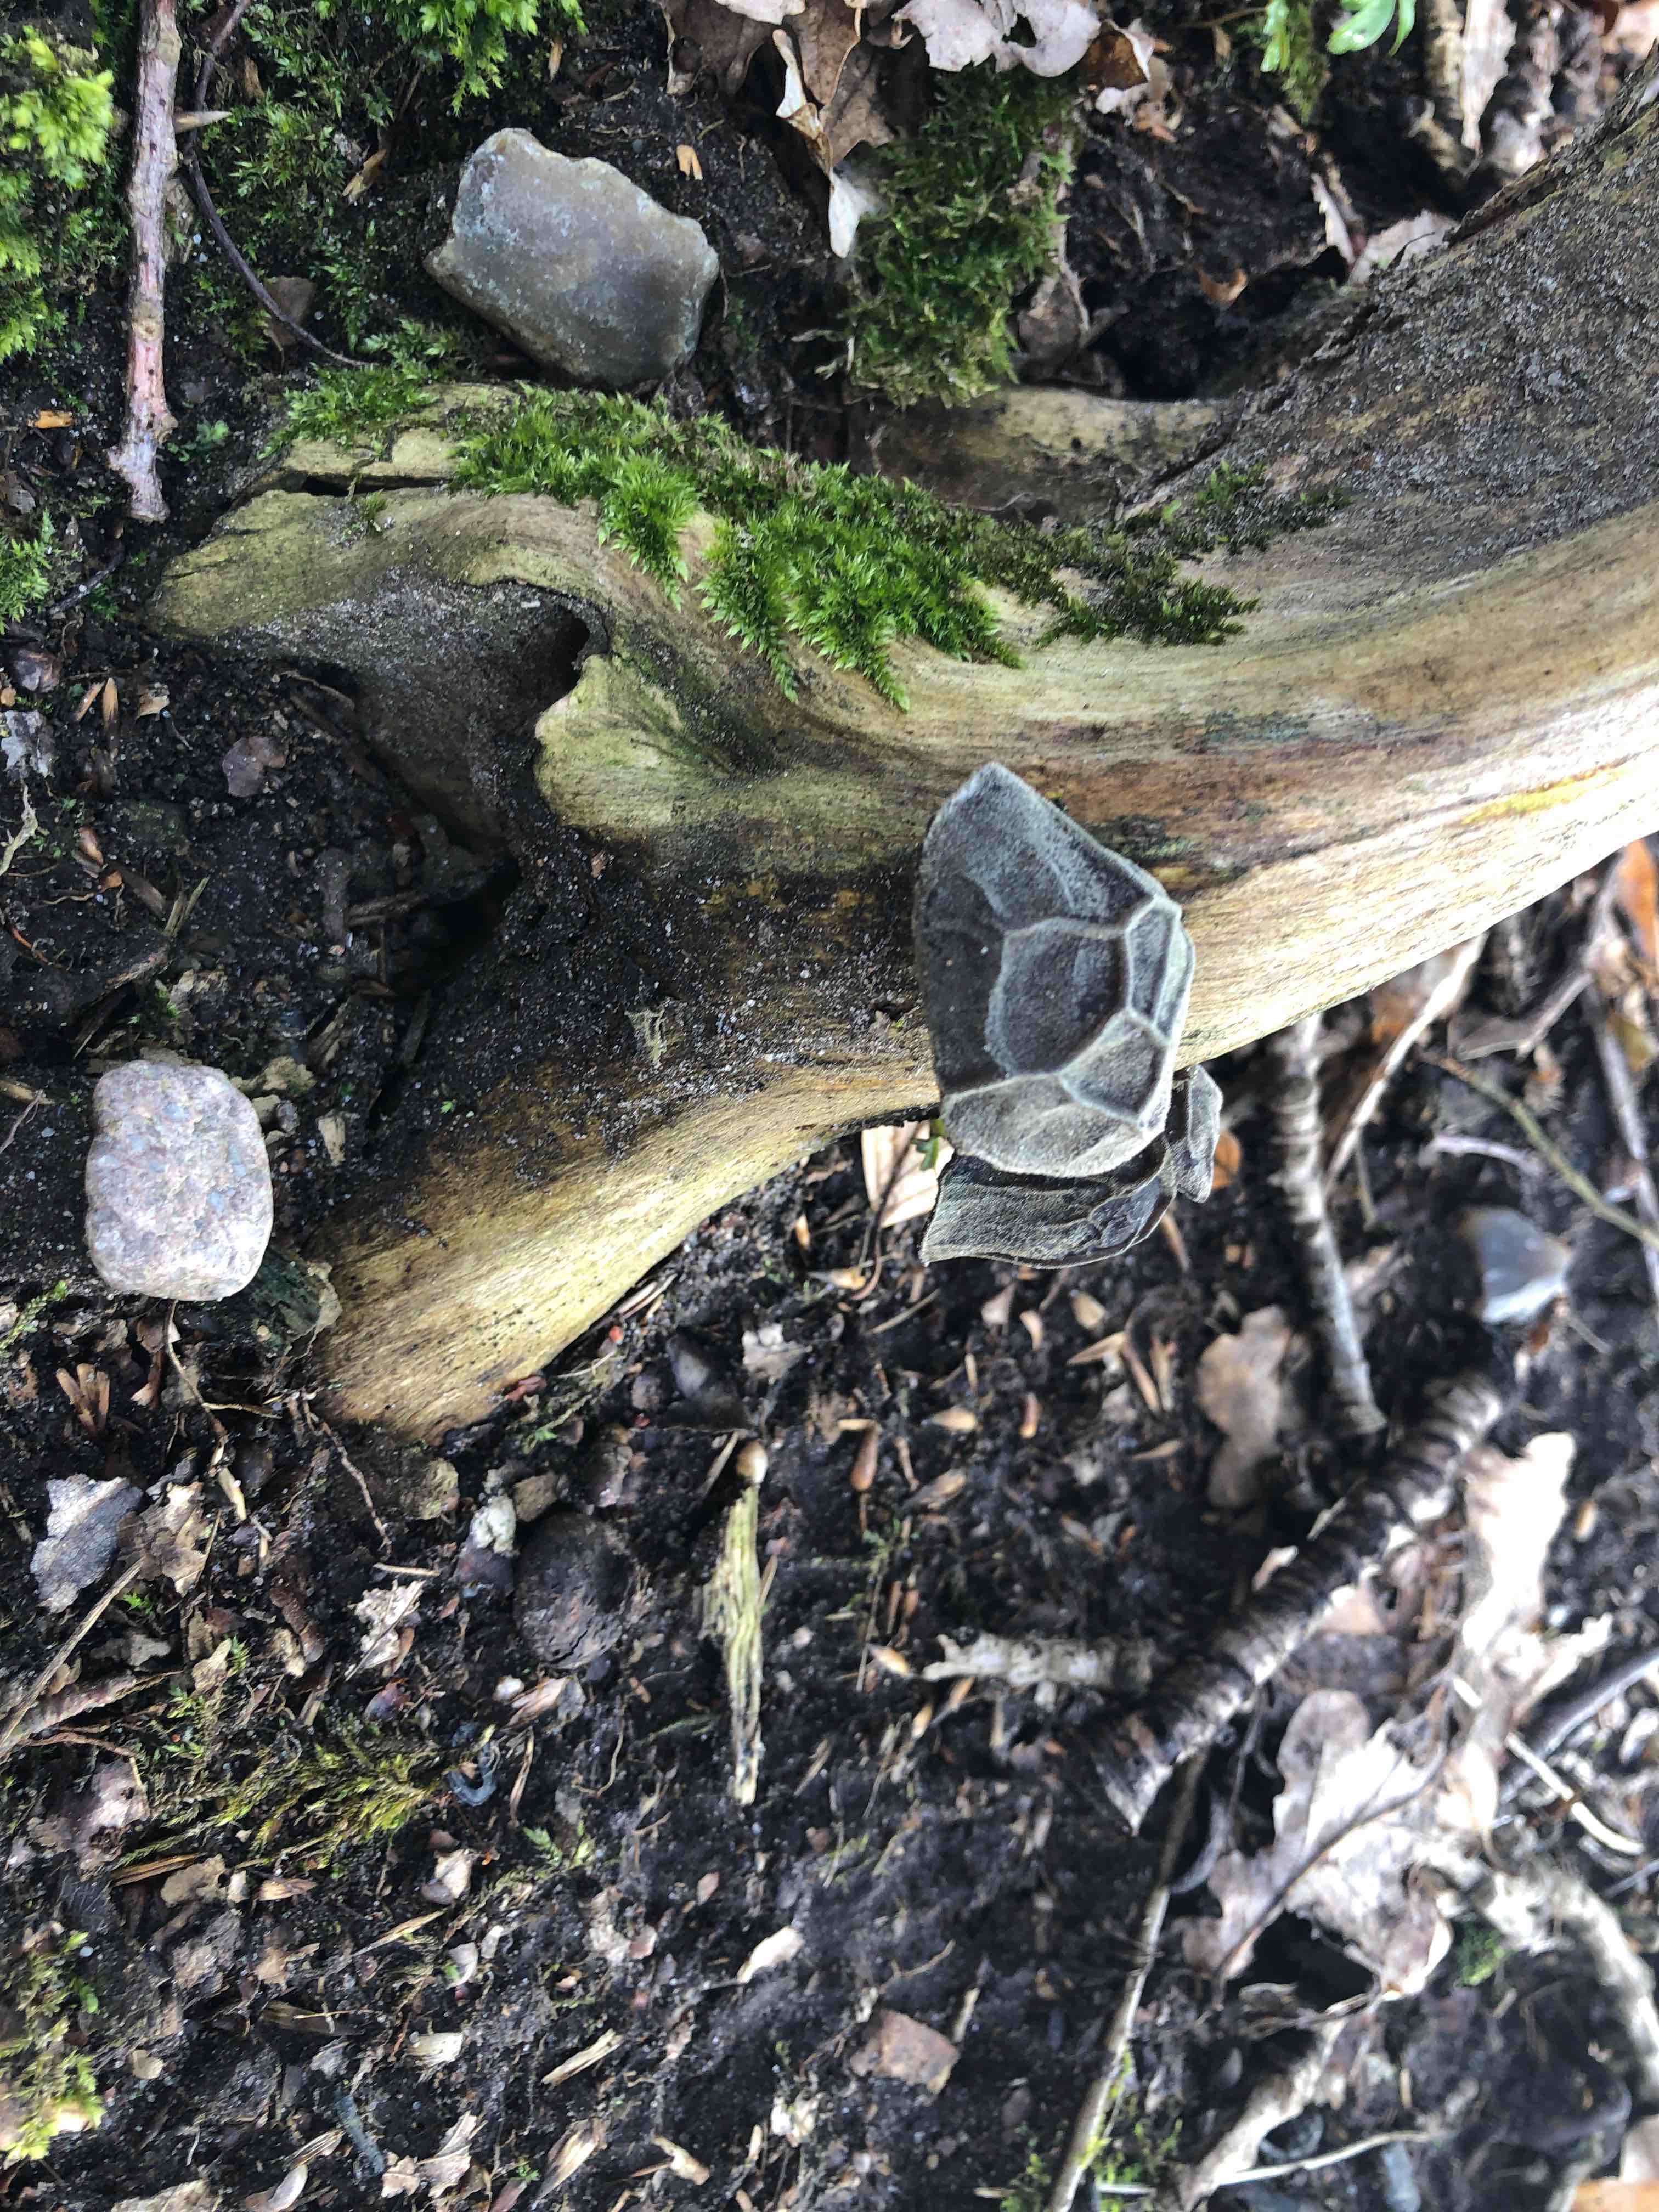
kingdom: Fungi
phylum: Basidiomycota
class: Agaricomycetes
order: Auriculariales
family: Auriculariaceae
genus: Auricularia
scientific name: Auricularia auricula-judae
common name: almindelig judasøre
